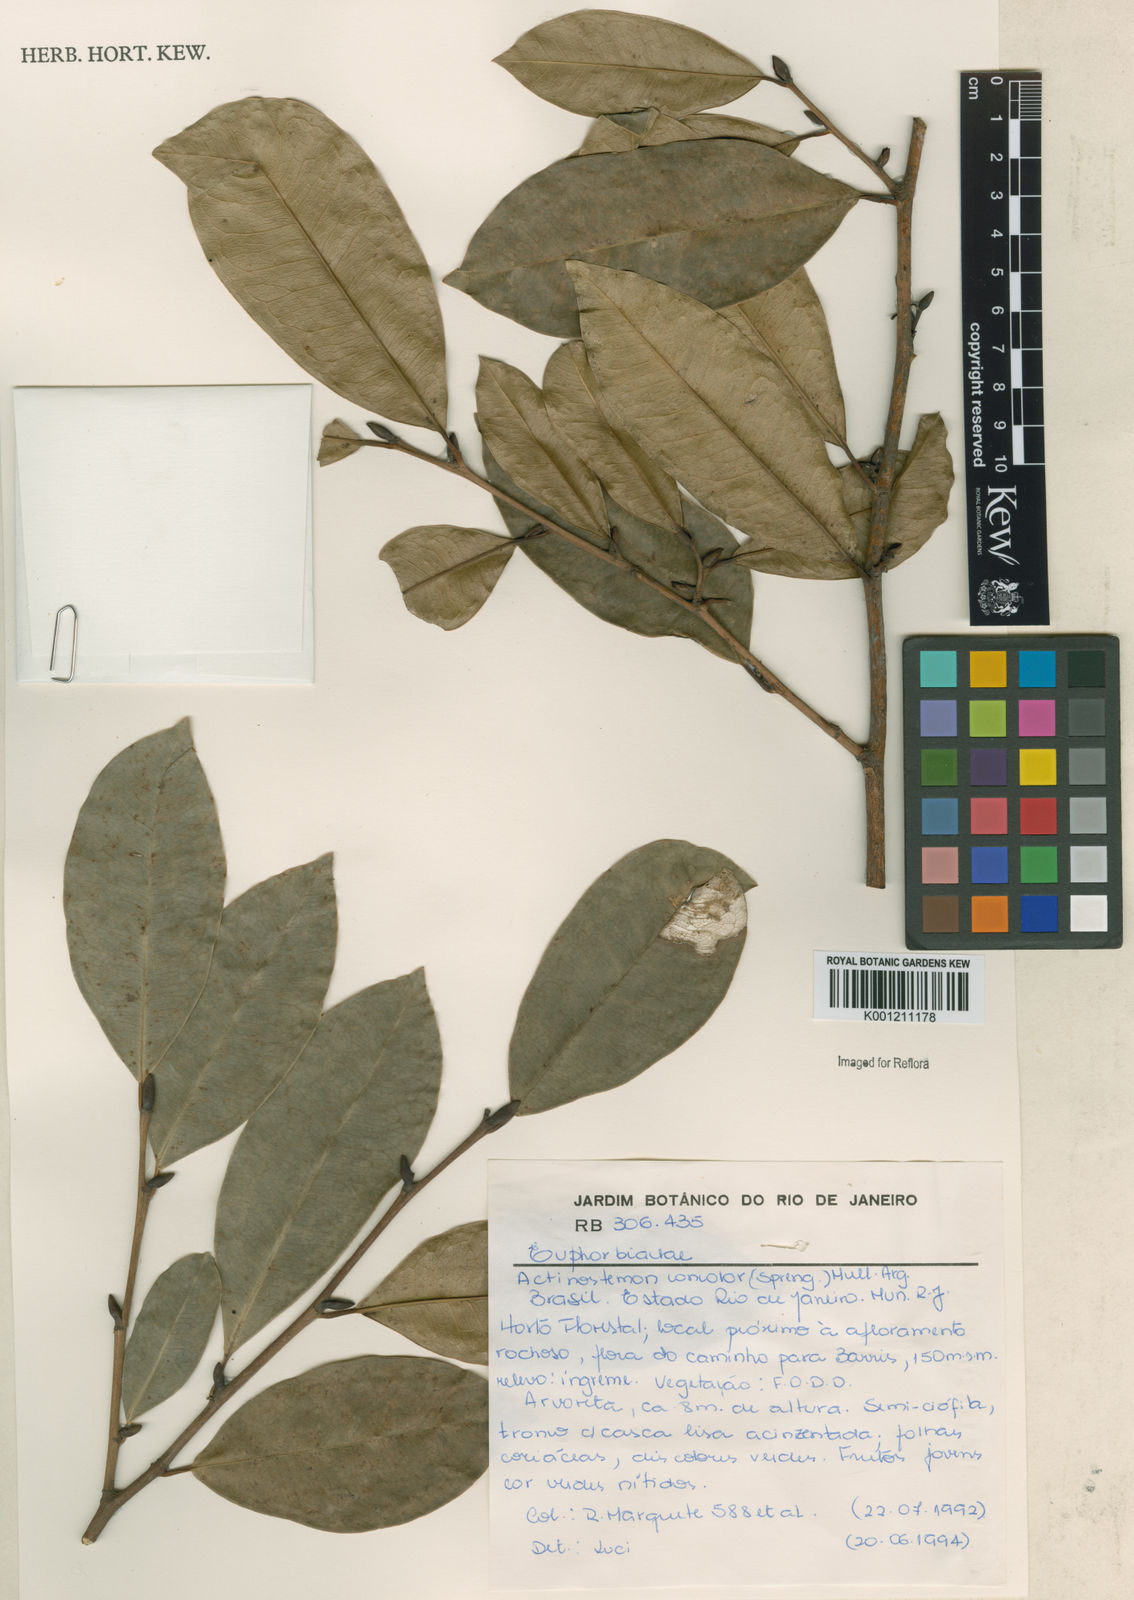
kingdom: Plantae
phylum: Tracheophyta
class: Magnoliopsida
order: Malpighiales
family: Euphorbiaceae
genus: Actinostemon
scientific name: Actinostemon
